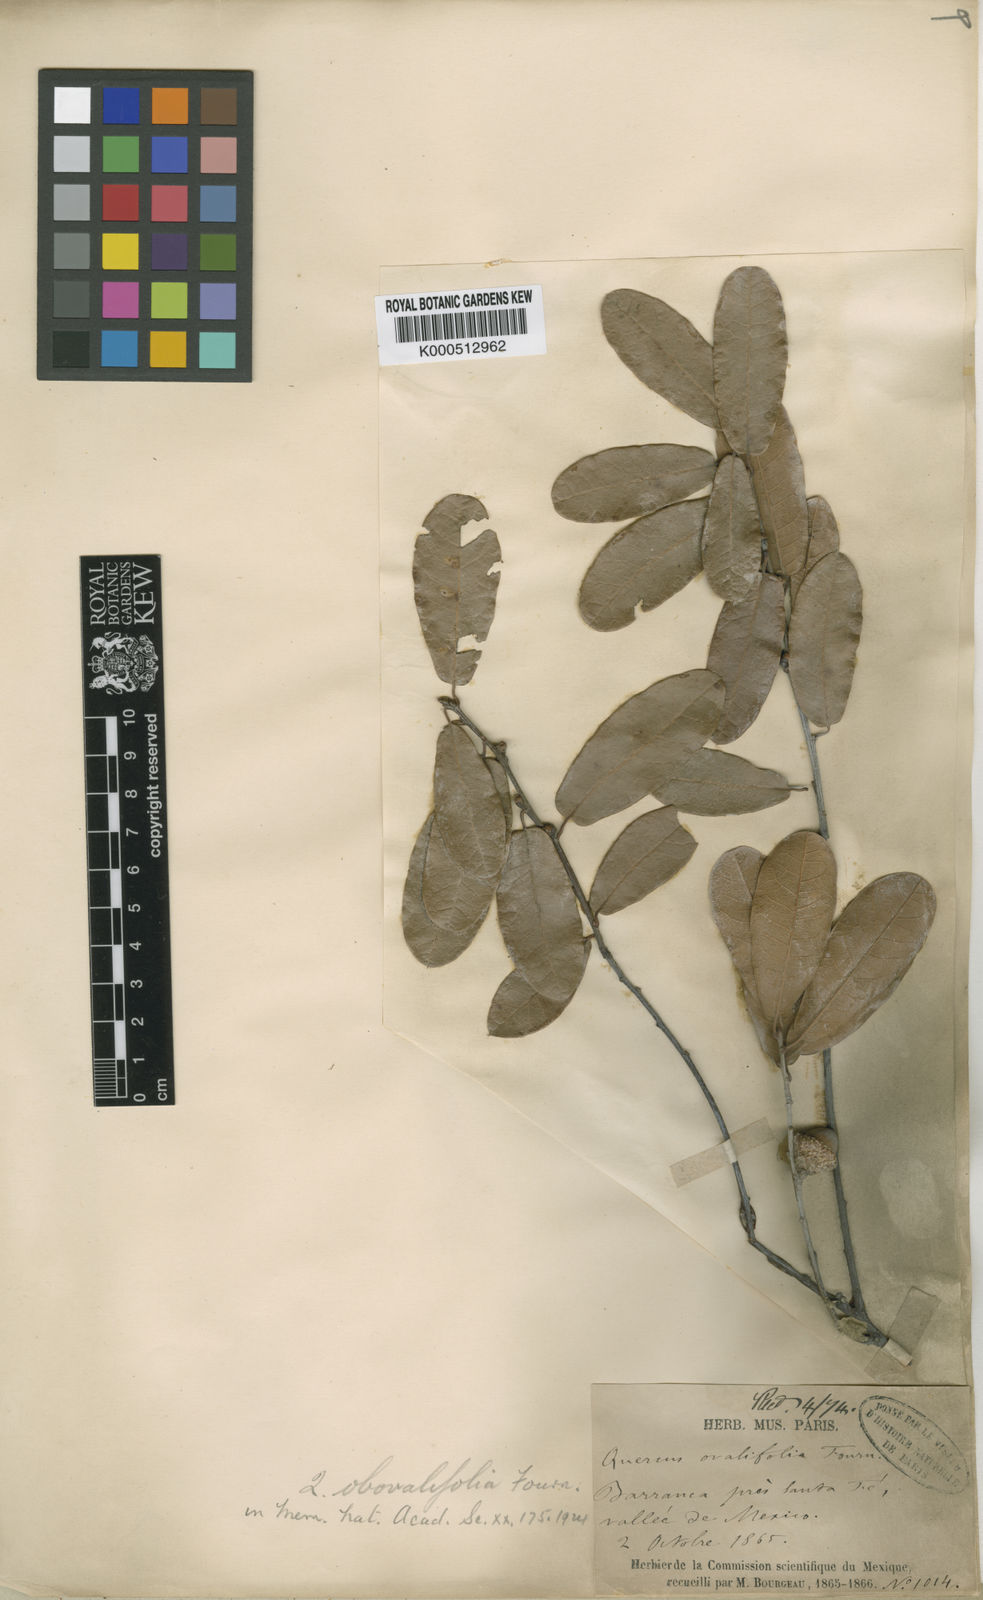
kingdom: Plantae
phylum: Tracheophyta
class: Magnoliopsida
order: Fagales
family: Fagaceae
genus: Quercus
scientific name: Quercus crassipes
